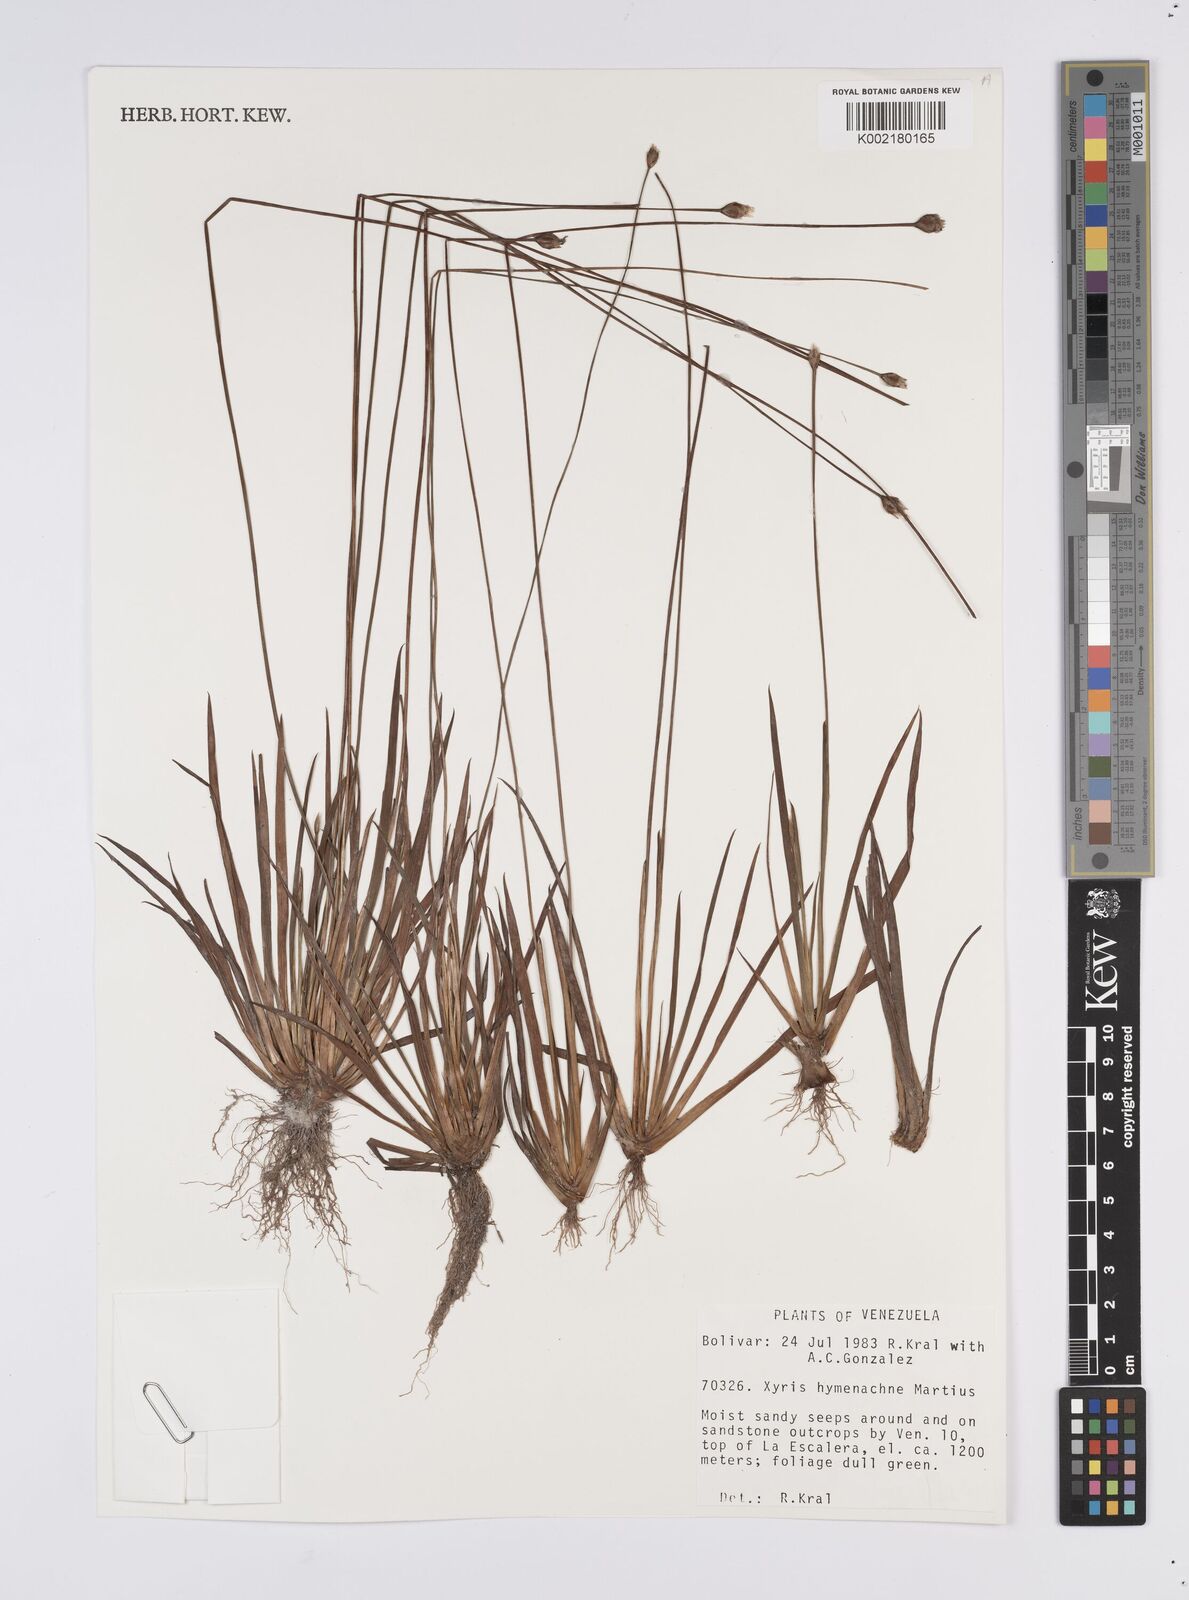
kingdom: Plantae
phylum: Tracheophyta
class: Liliopsida
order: Poales
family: Xyridaceae
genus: Xyris
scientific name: Xyris hymenachne
